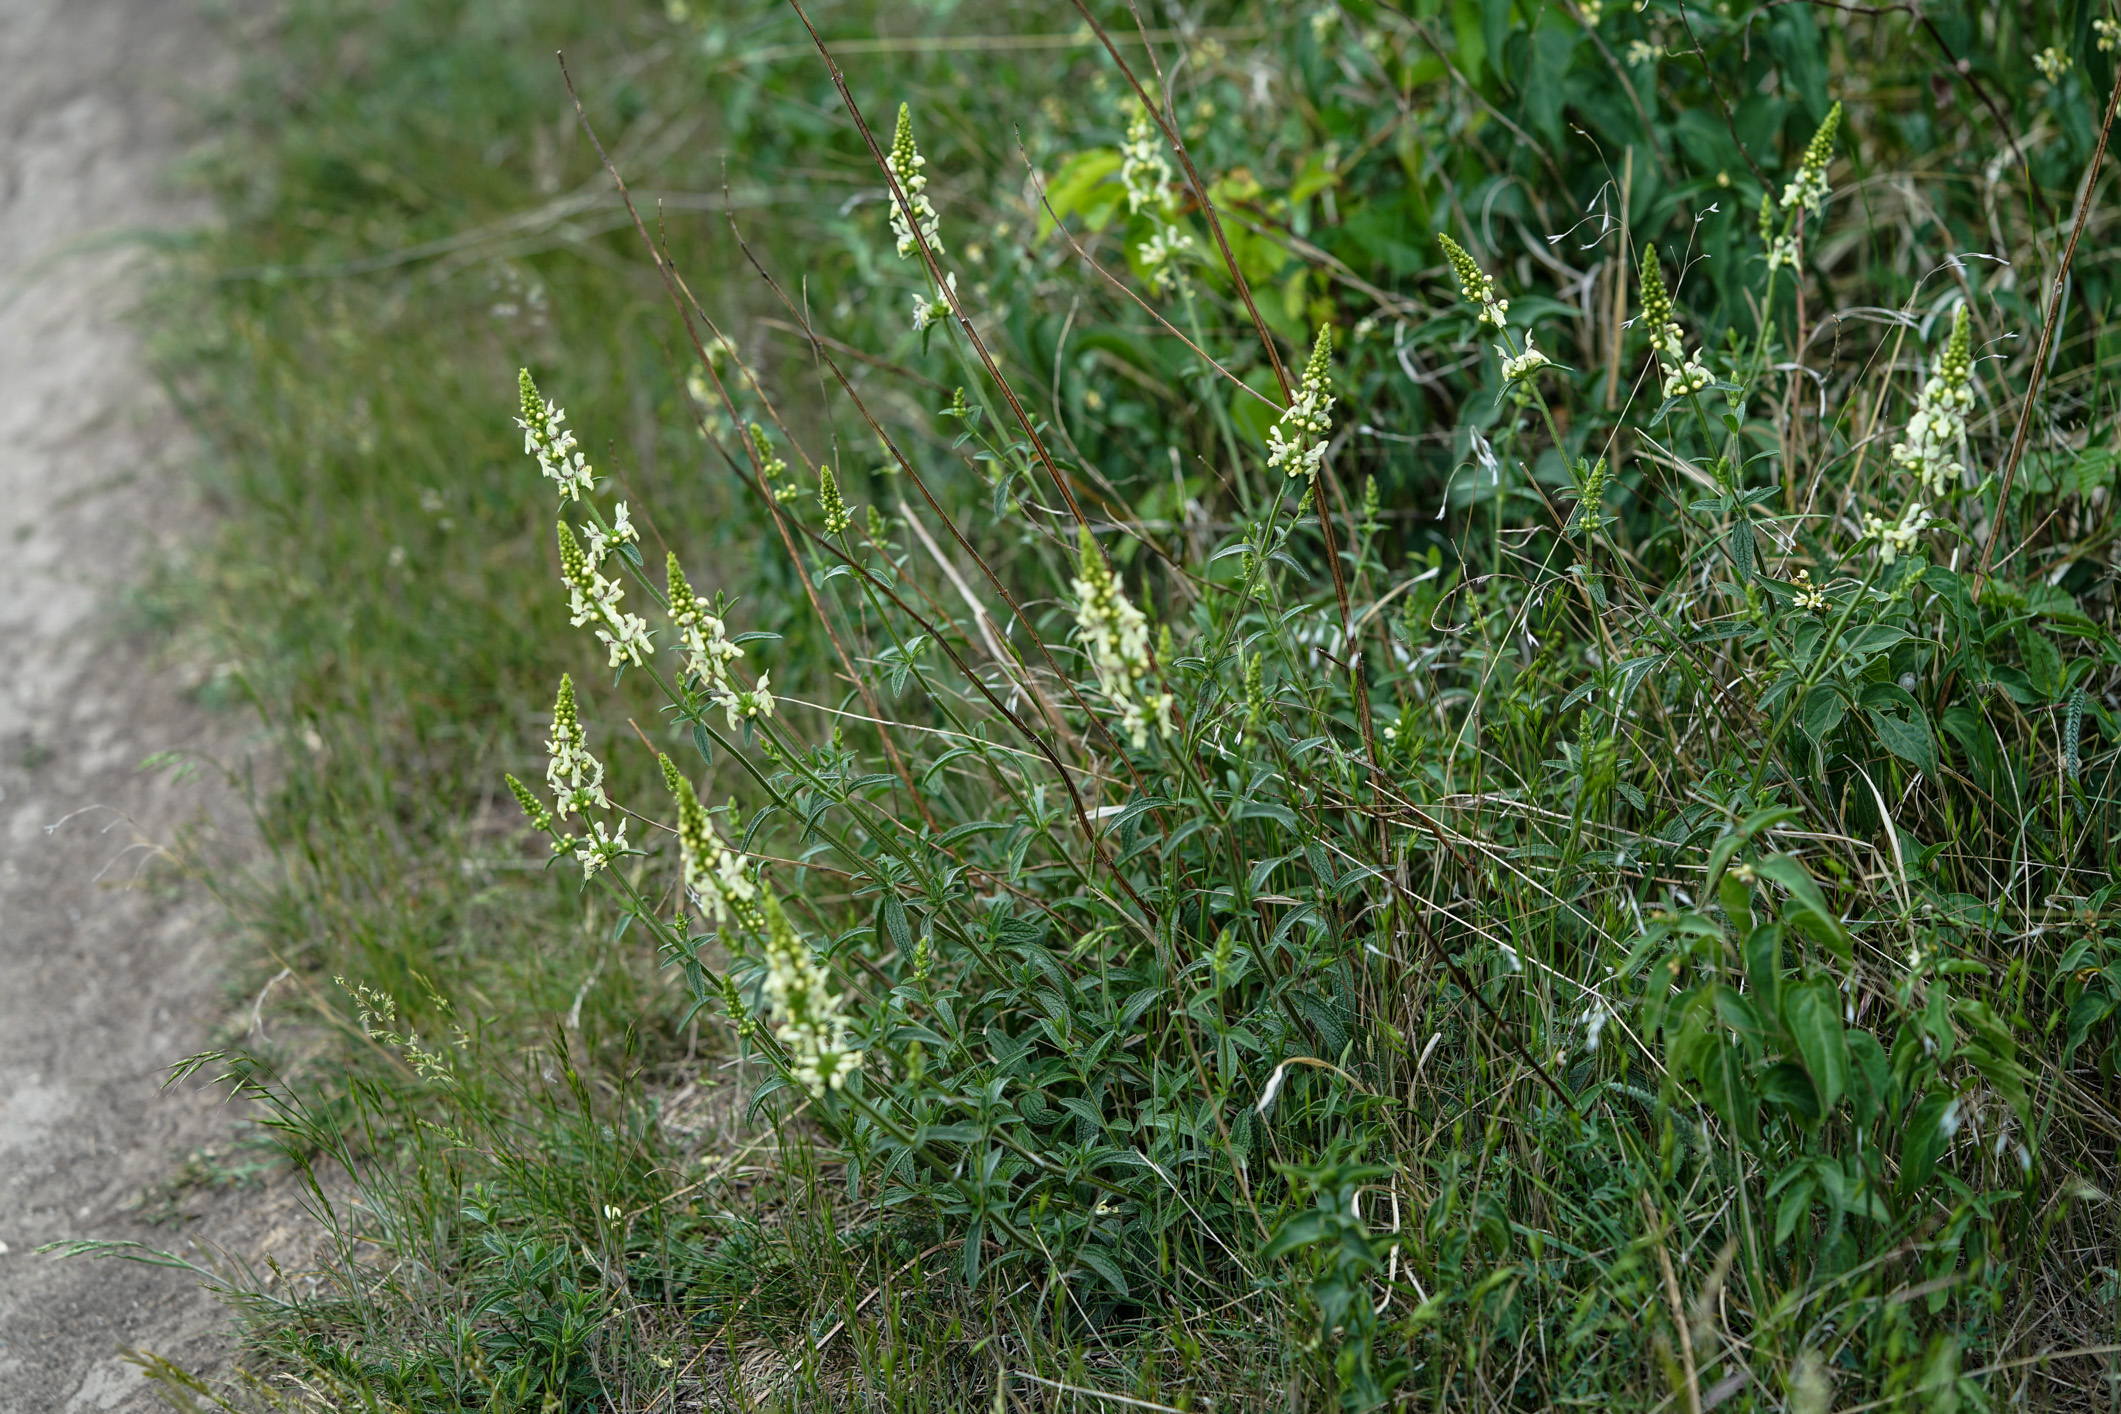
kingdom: Plantae
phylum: Tracheophyta
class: Magnoliopsida
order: Lamiales
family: Lamiaceae
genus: Stachys
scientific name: Stachys recta
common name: Perennial yellow-woundwort
